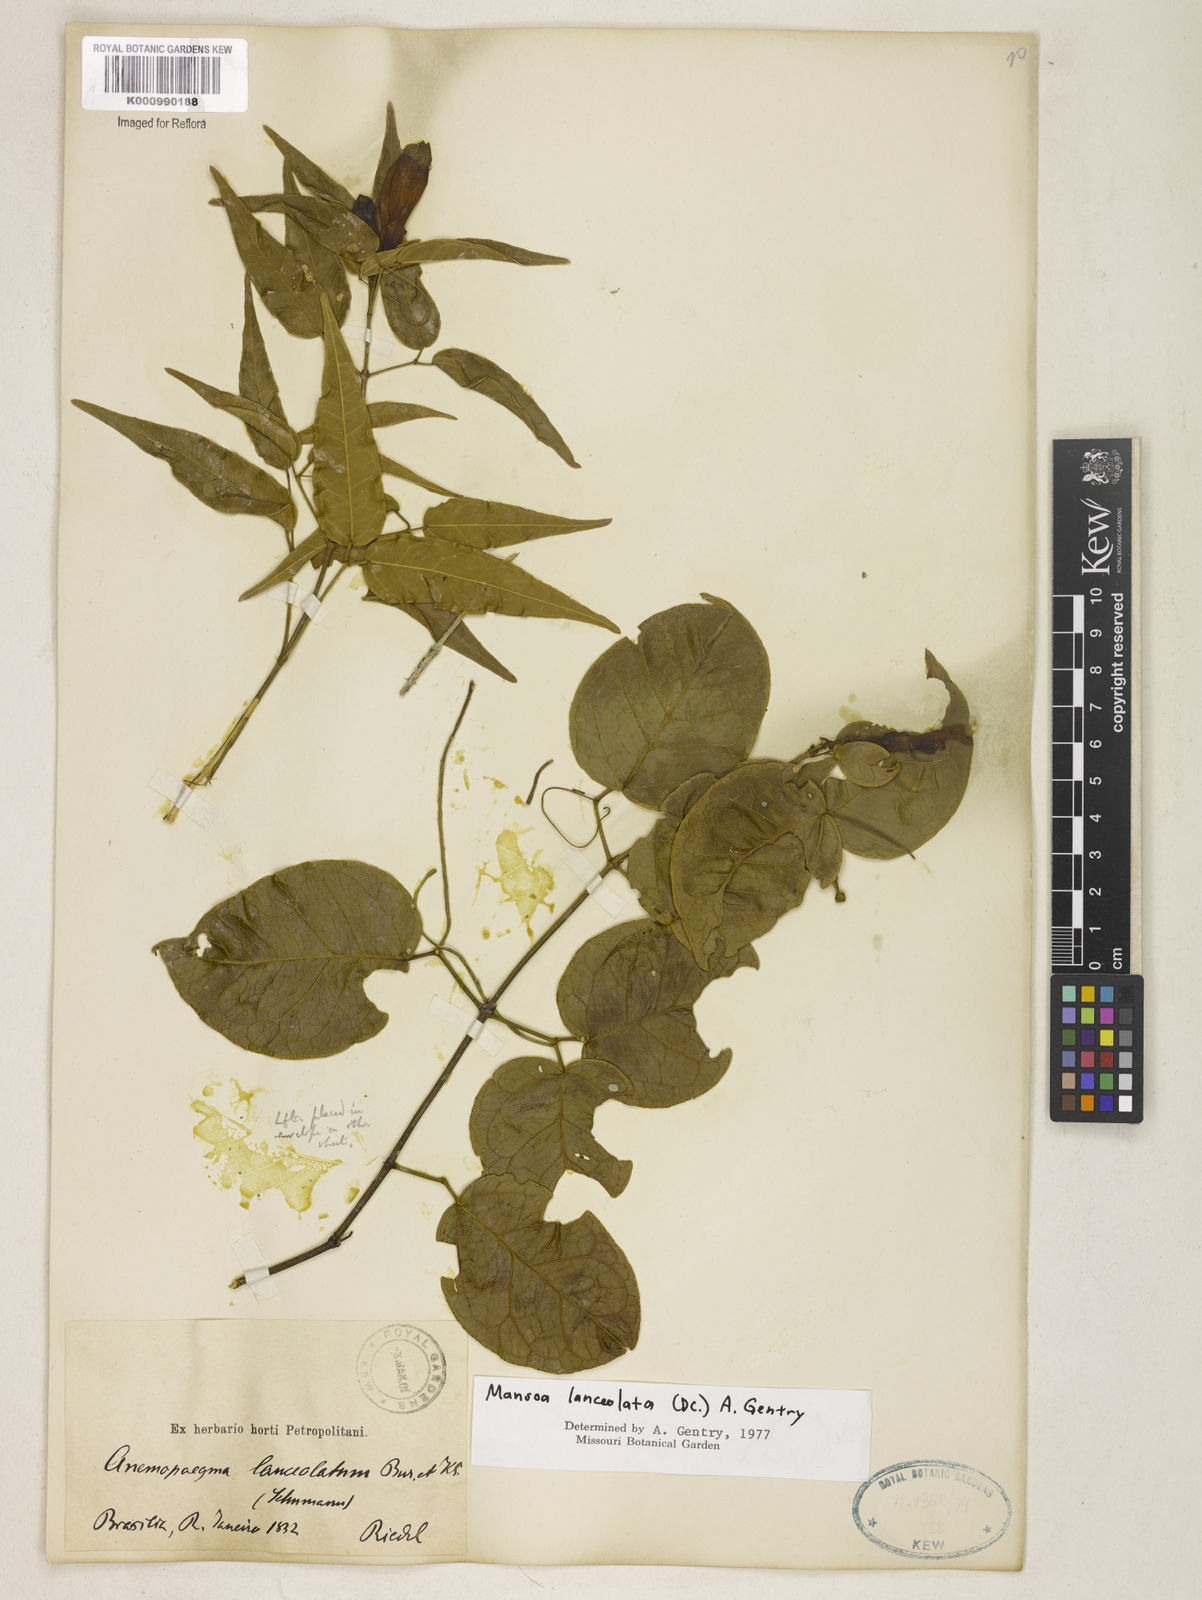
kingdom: Plantae
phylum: Tracheophyta
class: Magnoliopsida
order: Lamiales
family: Bignoniaceae
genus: Mansoa
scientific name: Mansoa difficilis
